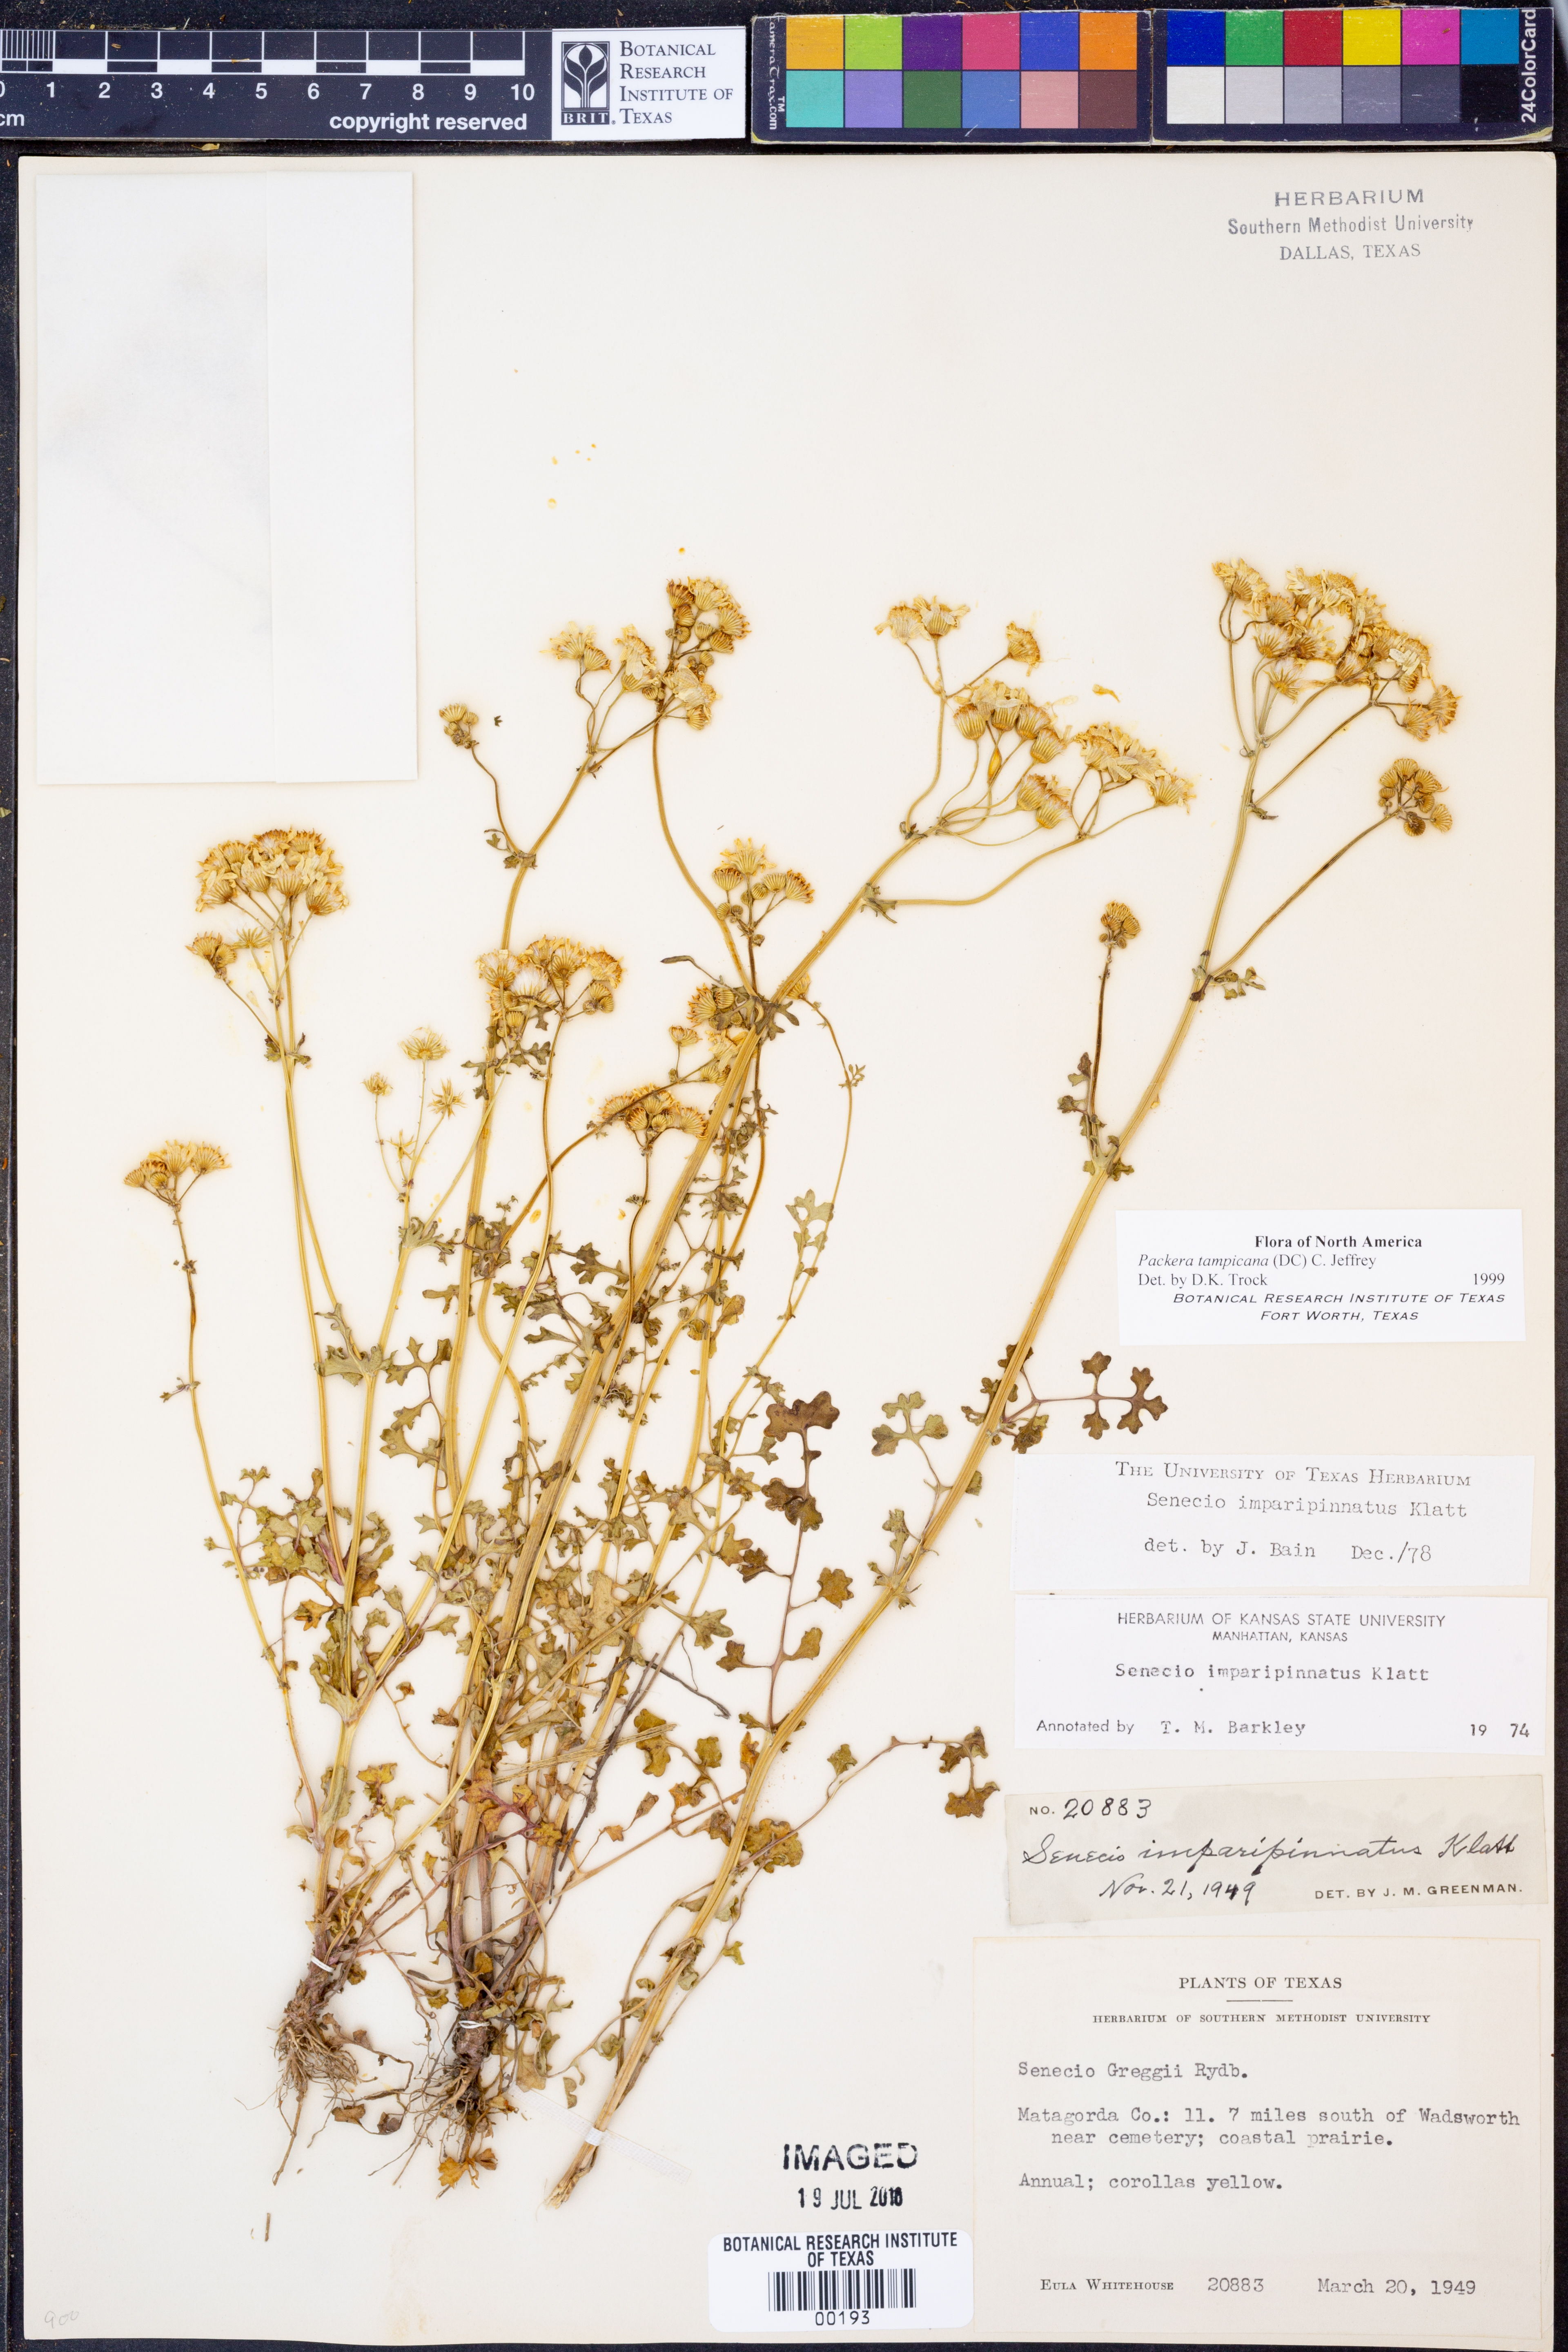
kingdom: Plantae
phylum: Tracheophyta
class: Magnoliopsida
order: Asterales
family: Asteraceae
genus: Packera
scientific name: Packera tampicana
